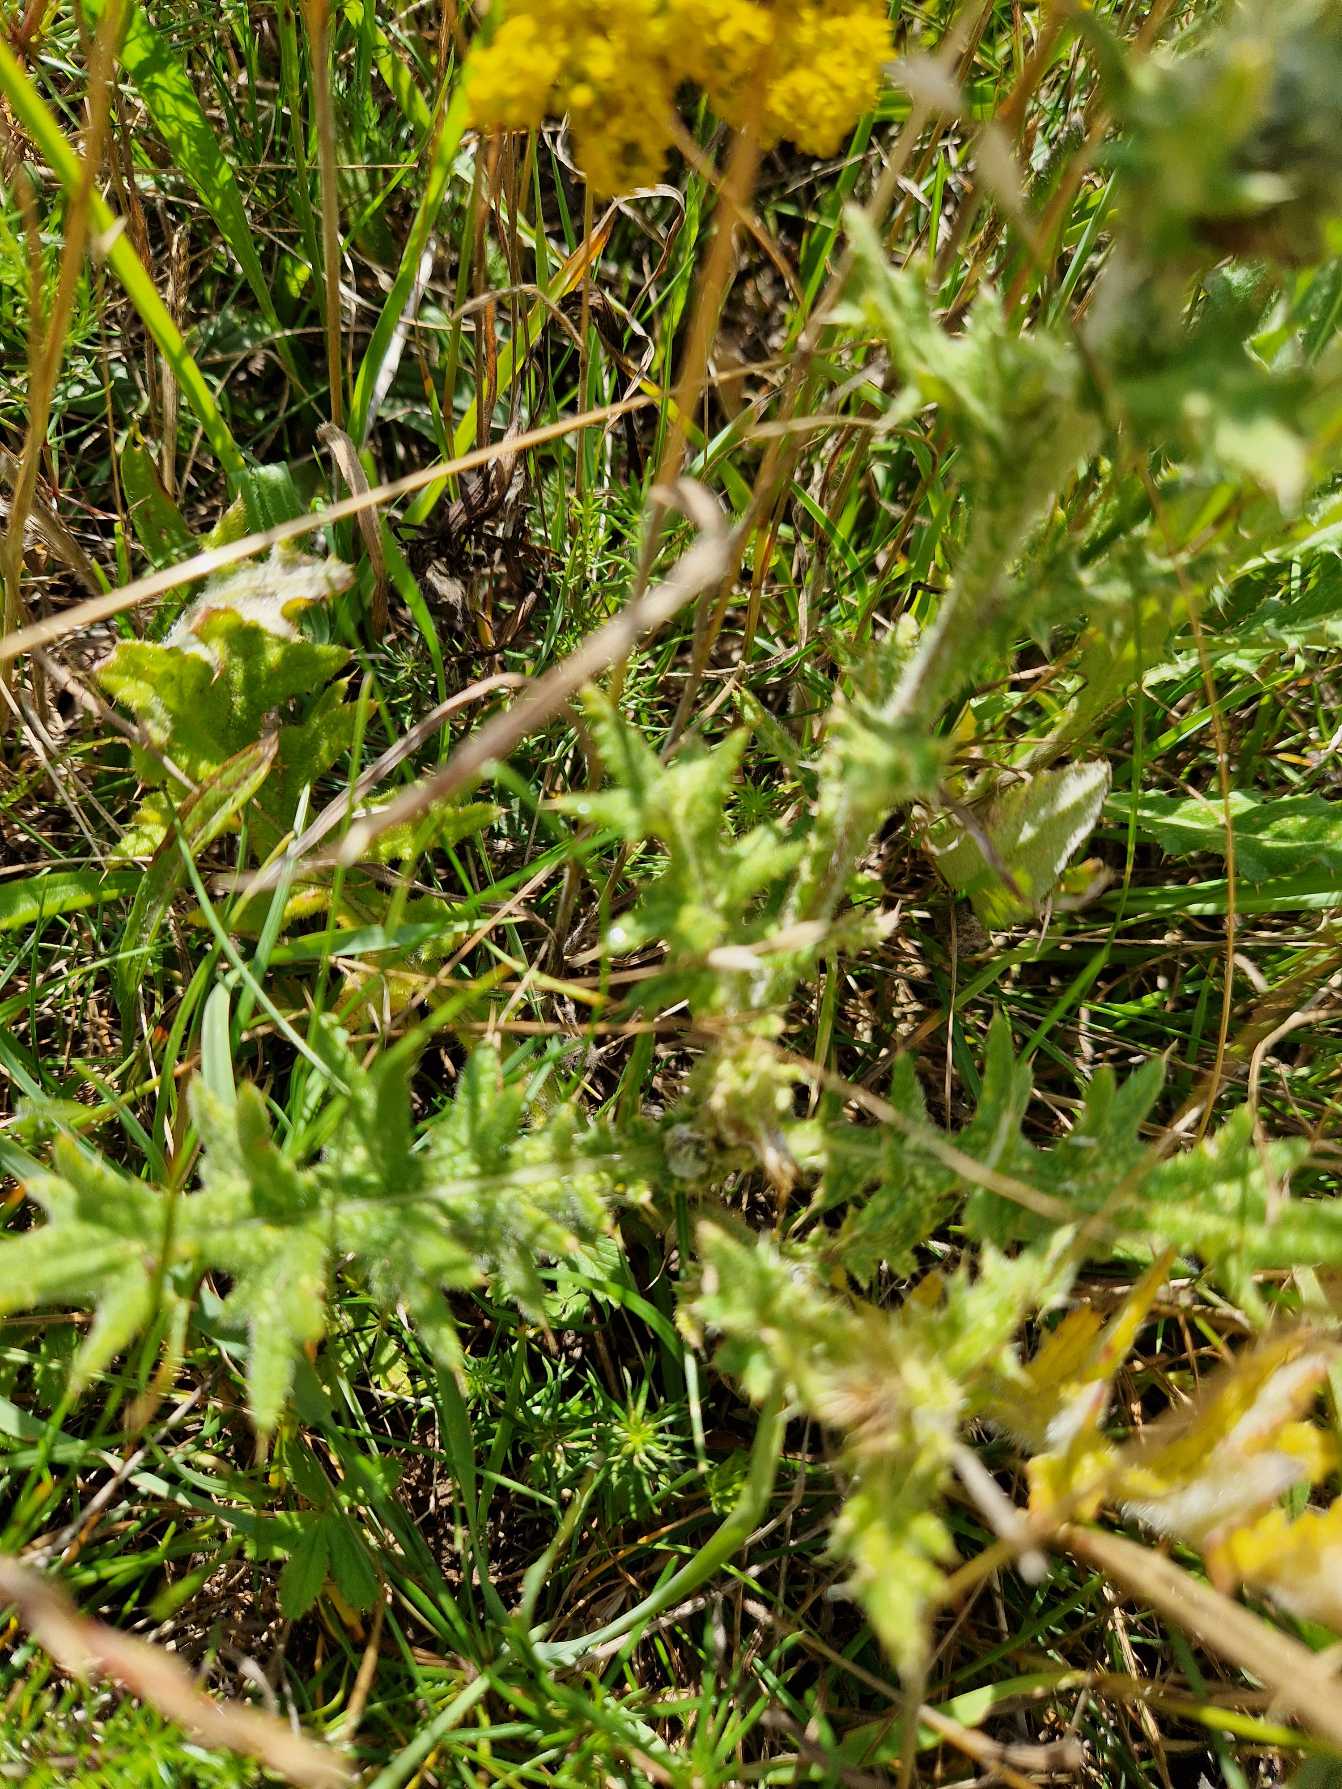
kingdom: Plantae
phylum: Tracheophyta
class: Magnoliopsida
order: Asterales
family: Asteraceae
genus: Cirsium
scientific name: Cirsium vulgare
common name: Horse-tidsel
